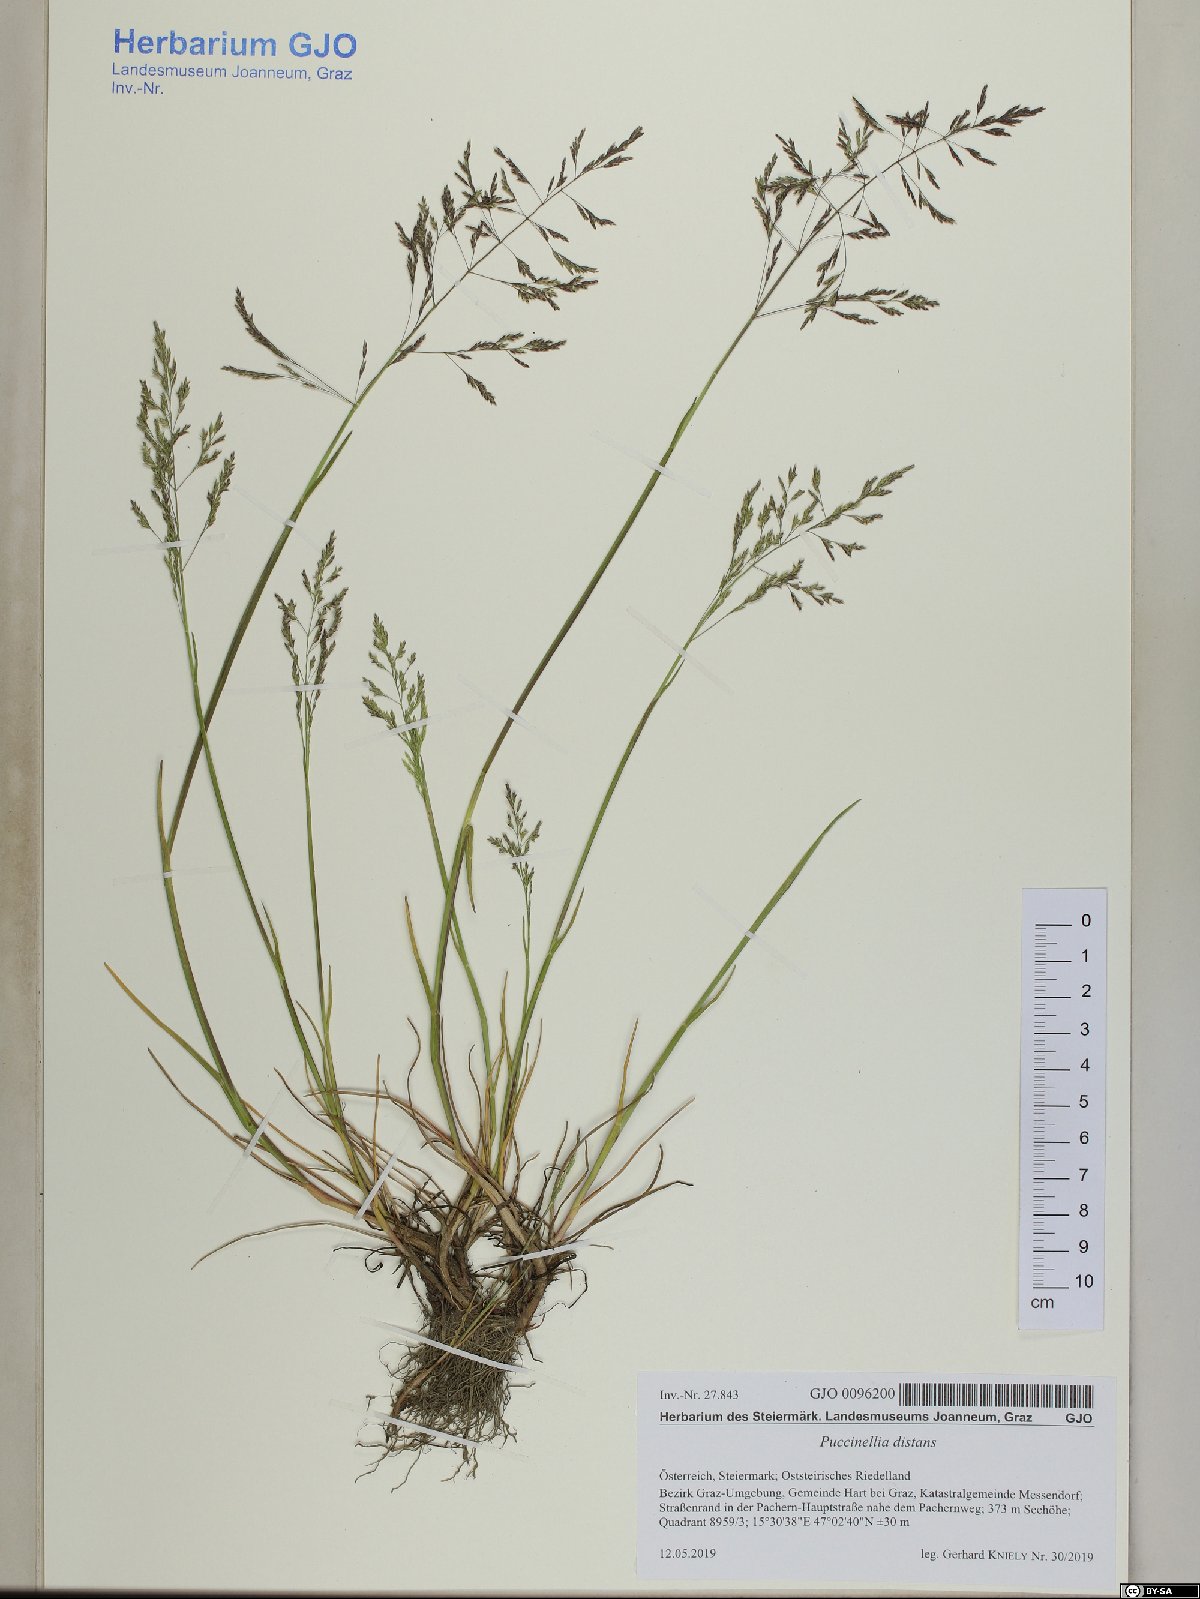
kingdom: Plantae
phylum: Tracheophyta
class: Liliopsida
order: Poales
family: Poaceae
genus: Puccinellia
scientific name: Puccinellia distans
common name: Weeping alkaligrass
